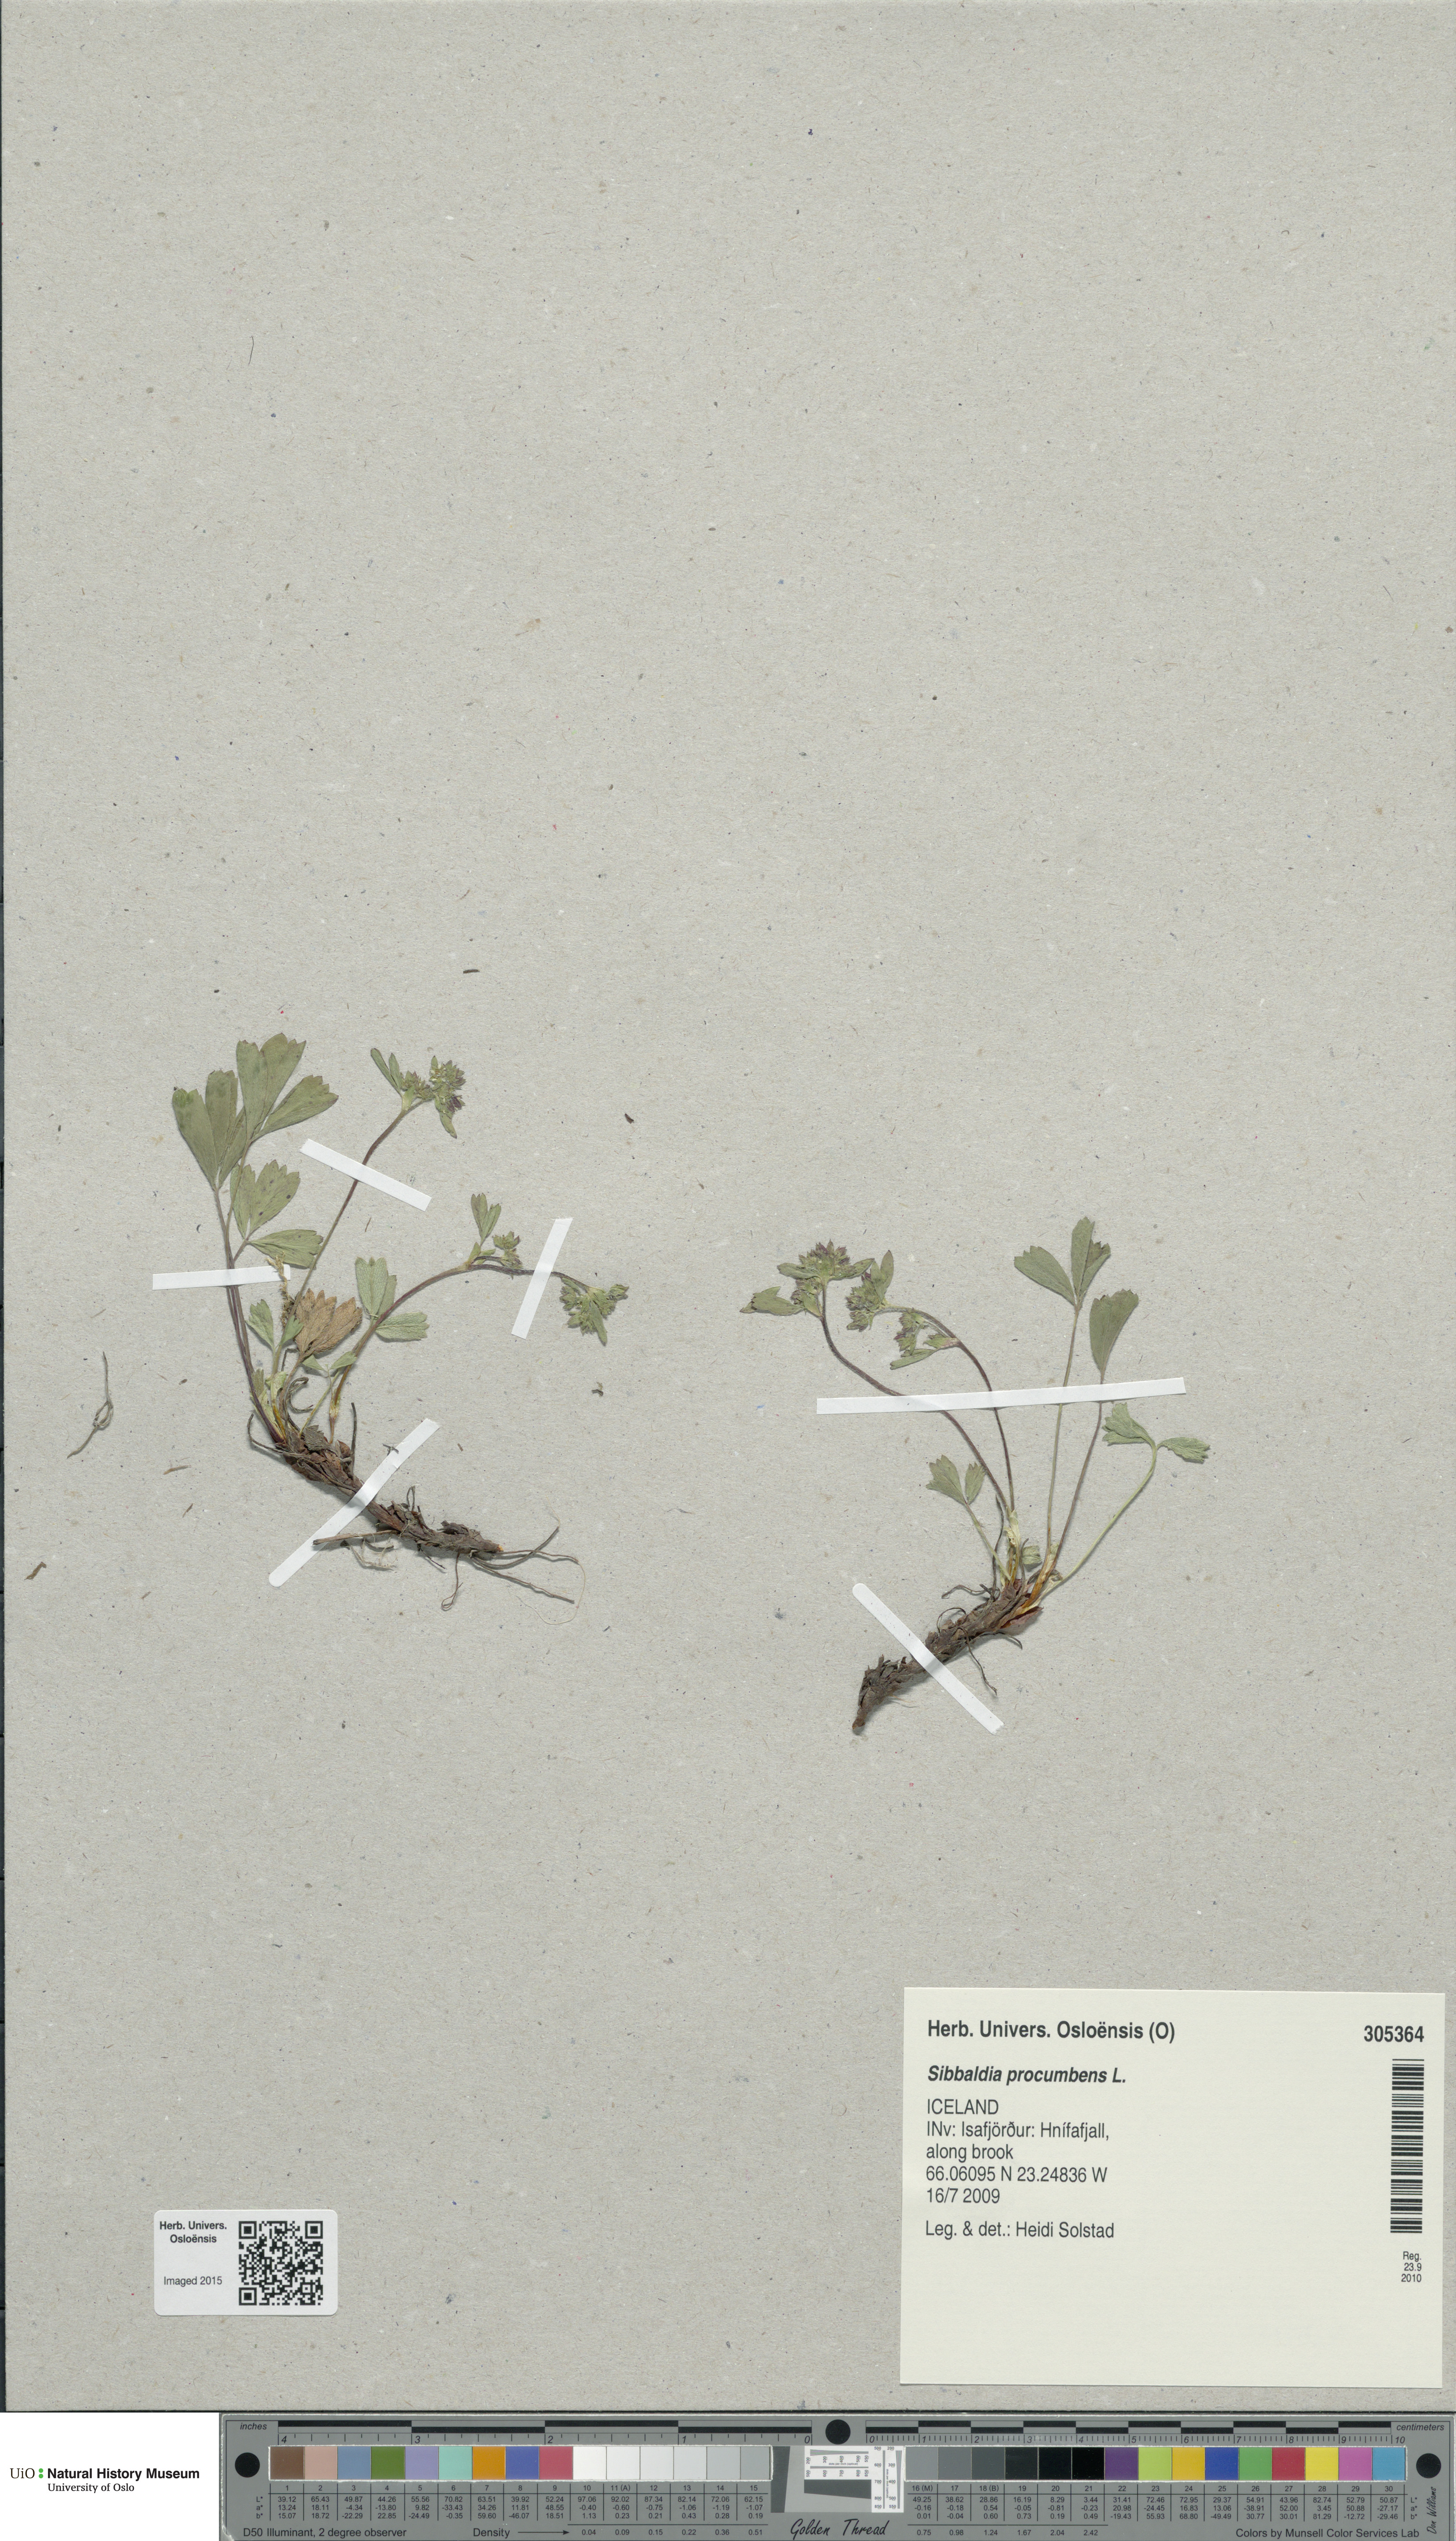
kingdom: Plantae
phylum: Tracheophyta
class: Magnoliopsida
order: Rosales
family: Rosaceae
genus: Sibbaldia
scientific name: Sibbaldia procumbens
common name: Creeping sibbaldia
